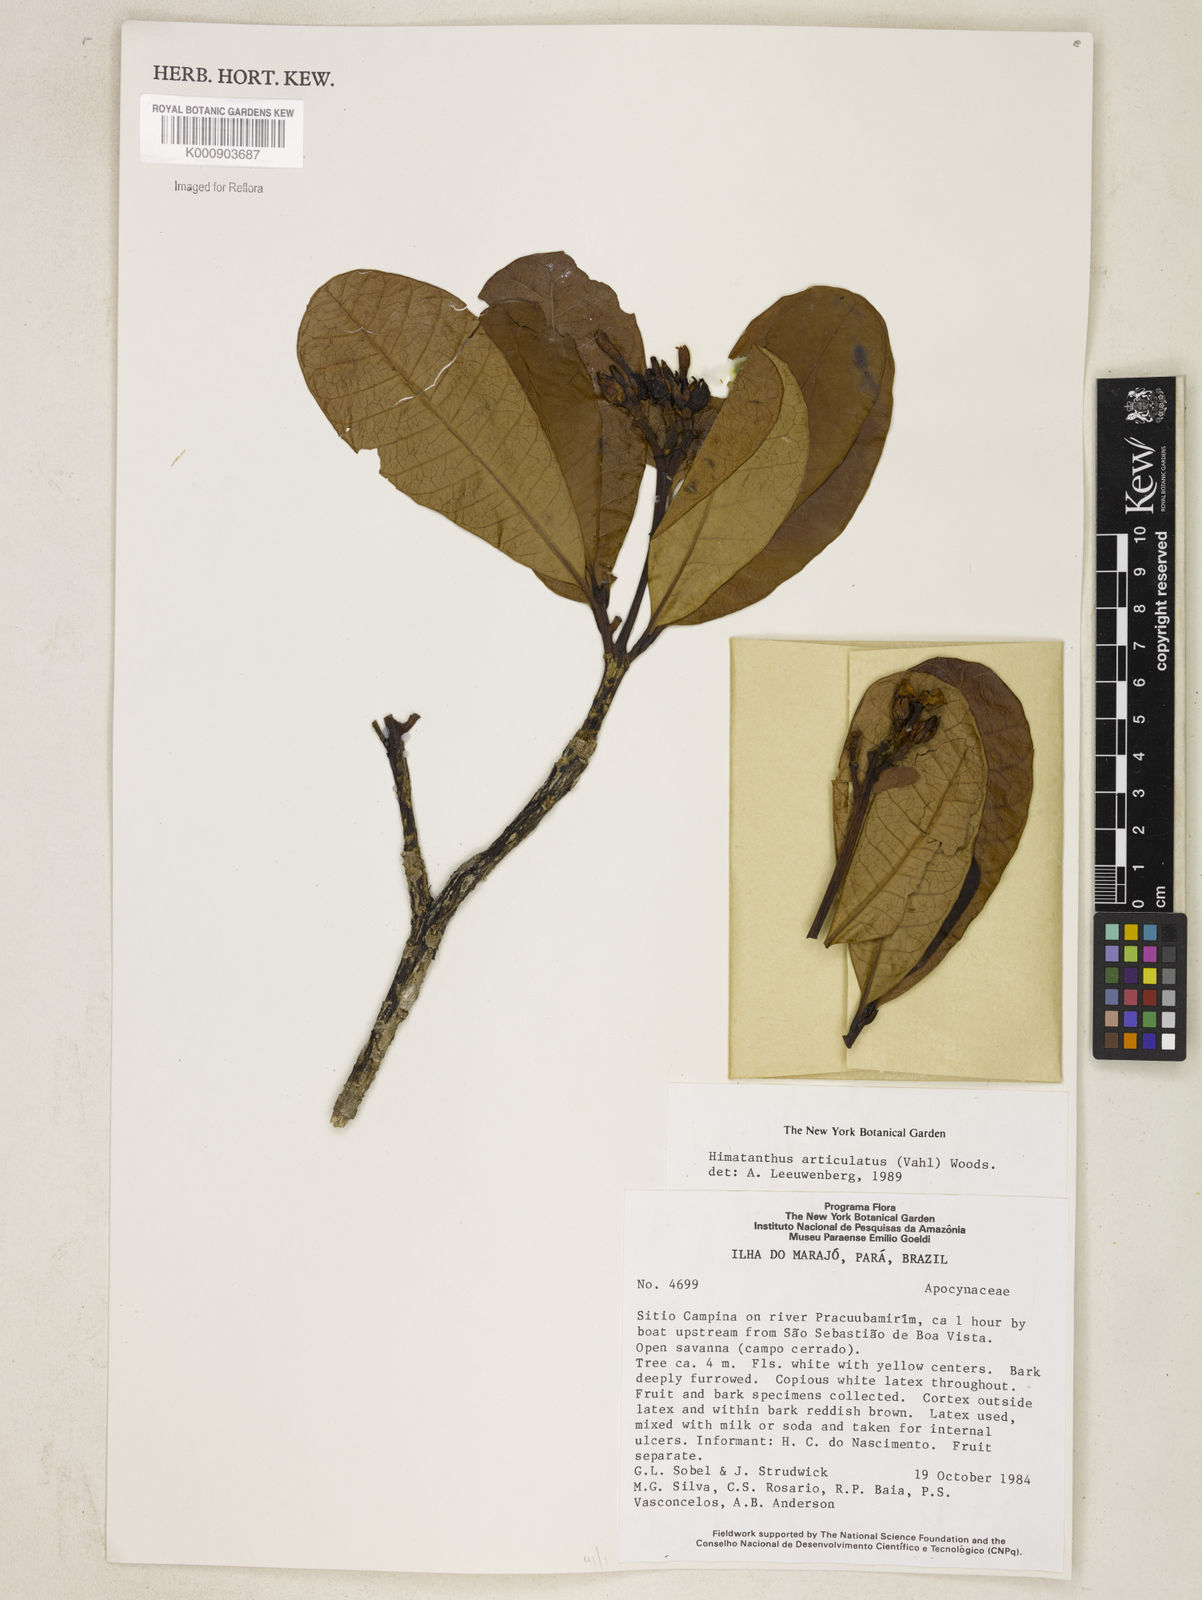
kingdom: Plantae
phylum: Tracheophyta
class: Magnoliopsida
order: Gentianales
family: Apocynaceae
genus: Himatanthus
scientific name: Himatanthus articulatus
